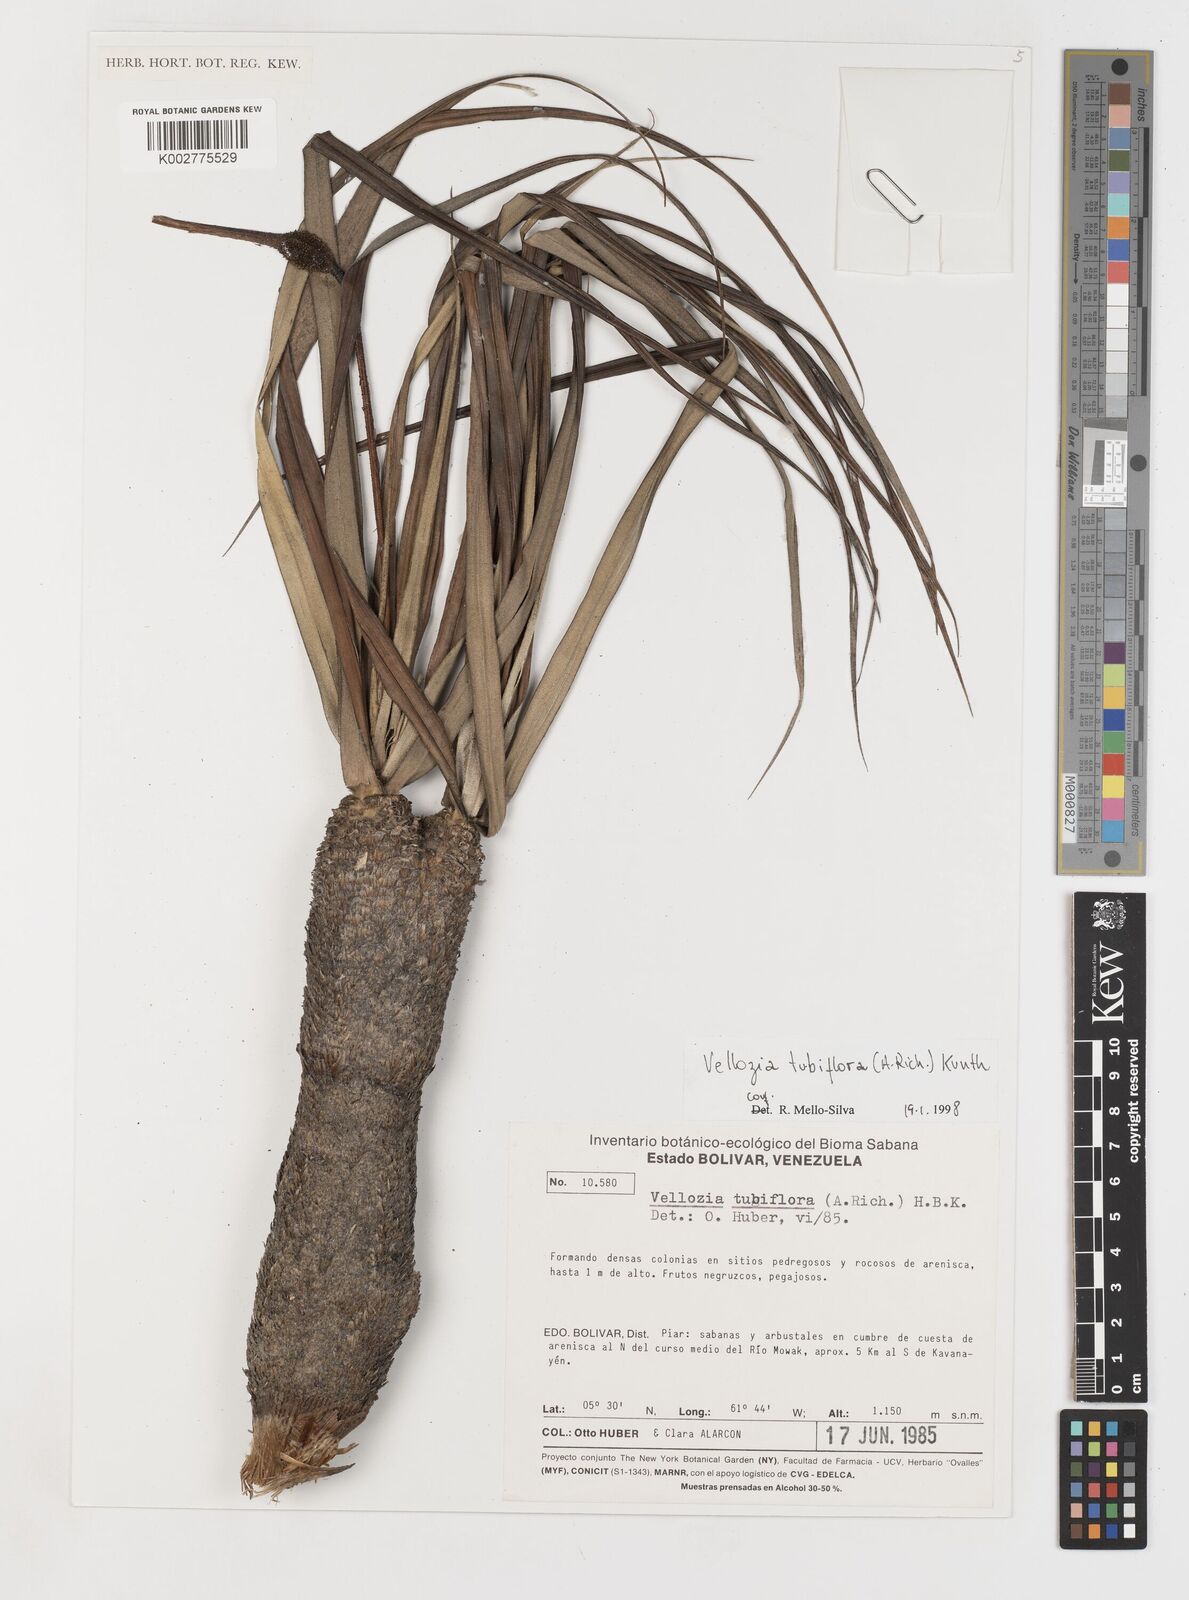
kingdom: Plantae
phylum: Tracheophyta
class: Liliopsida
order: Pandanales
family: Velloziaceae
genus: Vellozia
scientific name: Vellozia tubiflora
